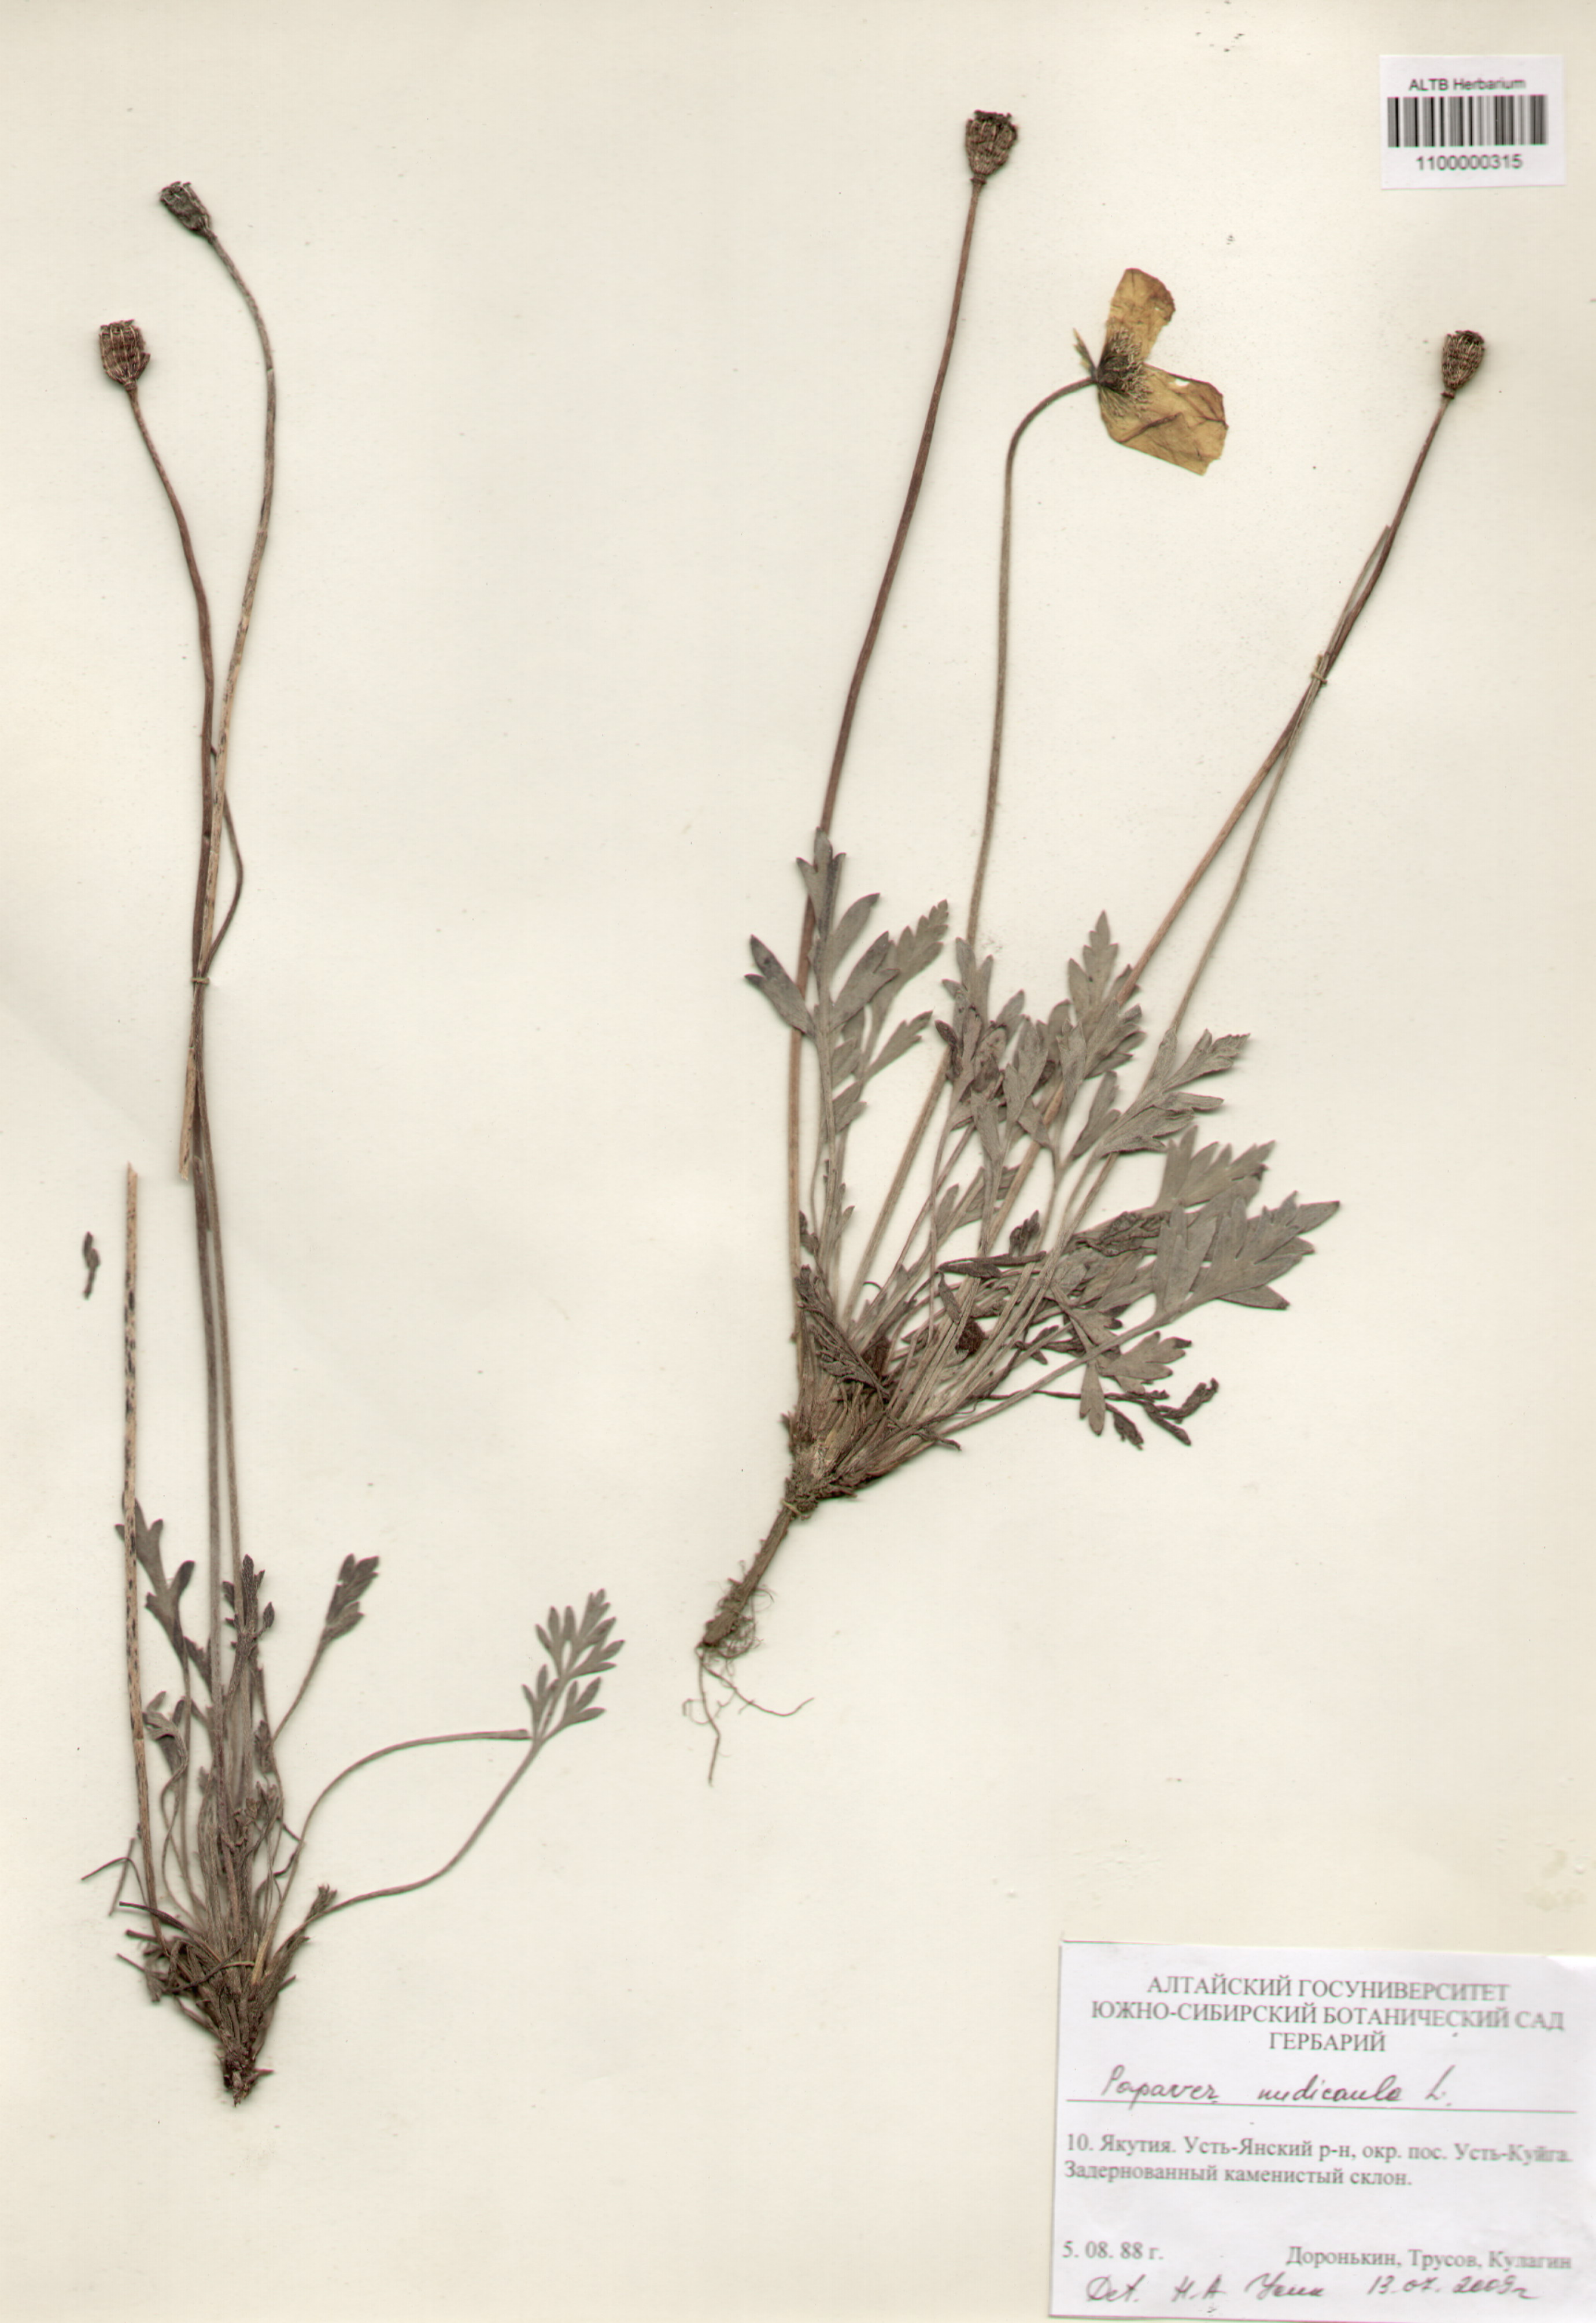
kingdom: Plantae
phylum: Tracheophyta
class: Magnoliopsida
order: Ranunculales
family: Papaveraceae
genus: Papaver
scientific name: Papaver nudicaule
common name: Arctic poppy
